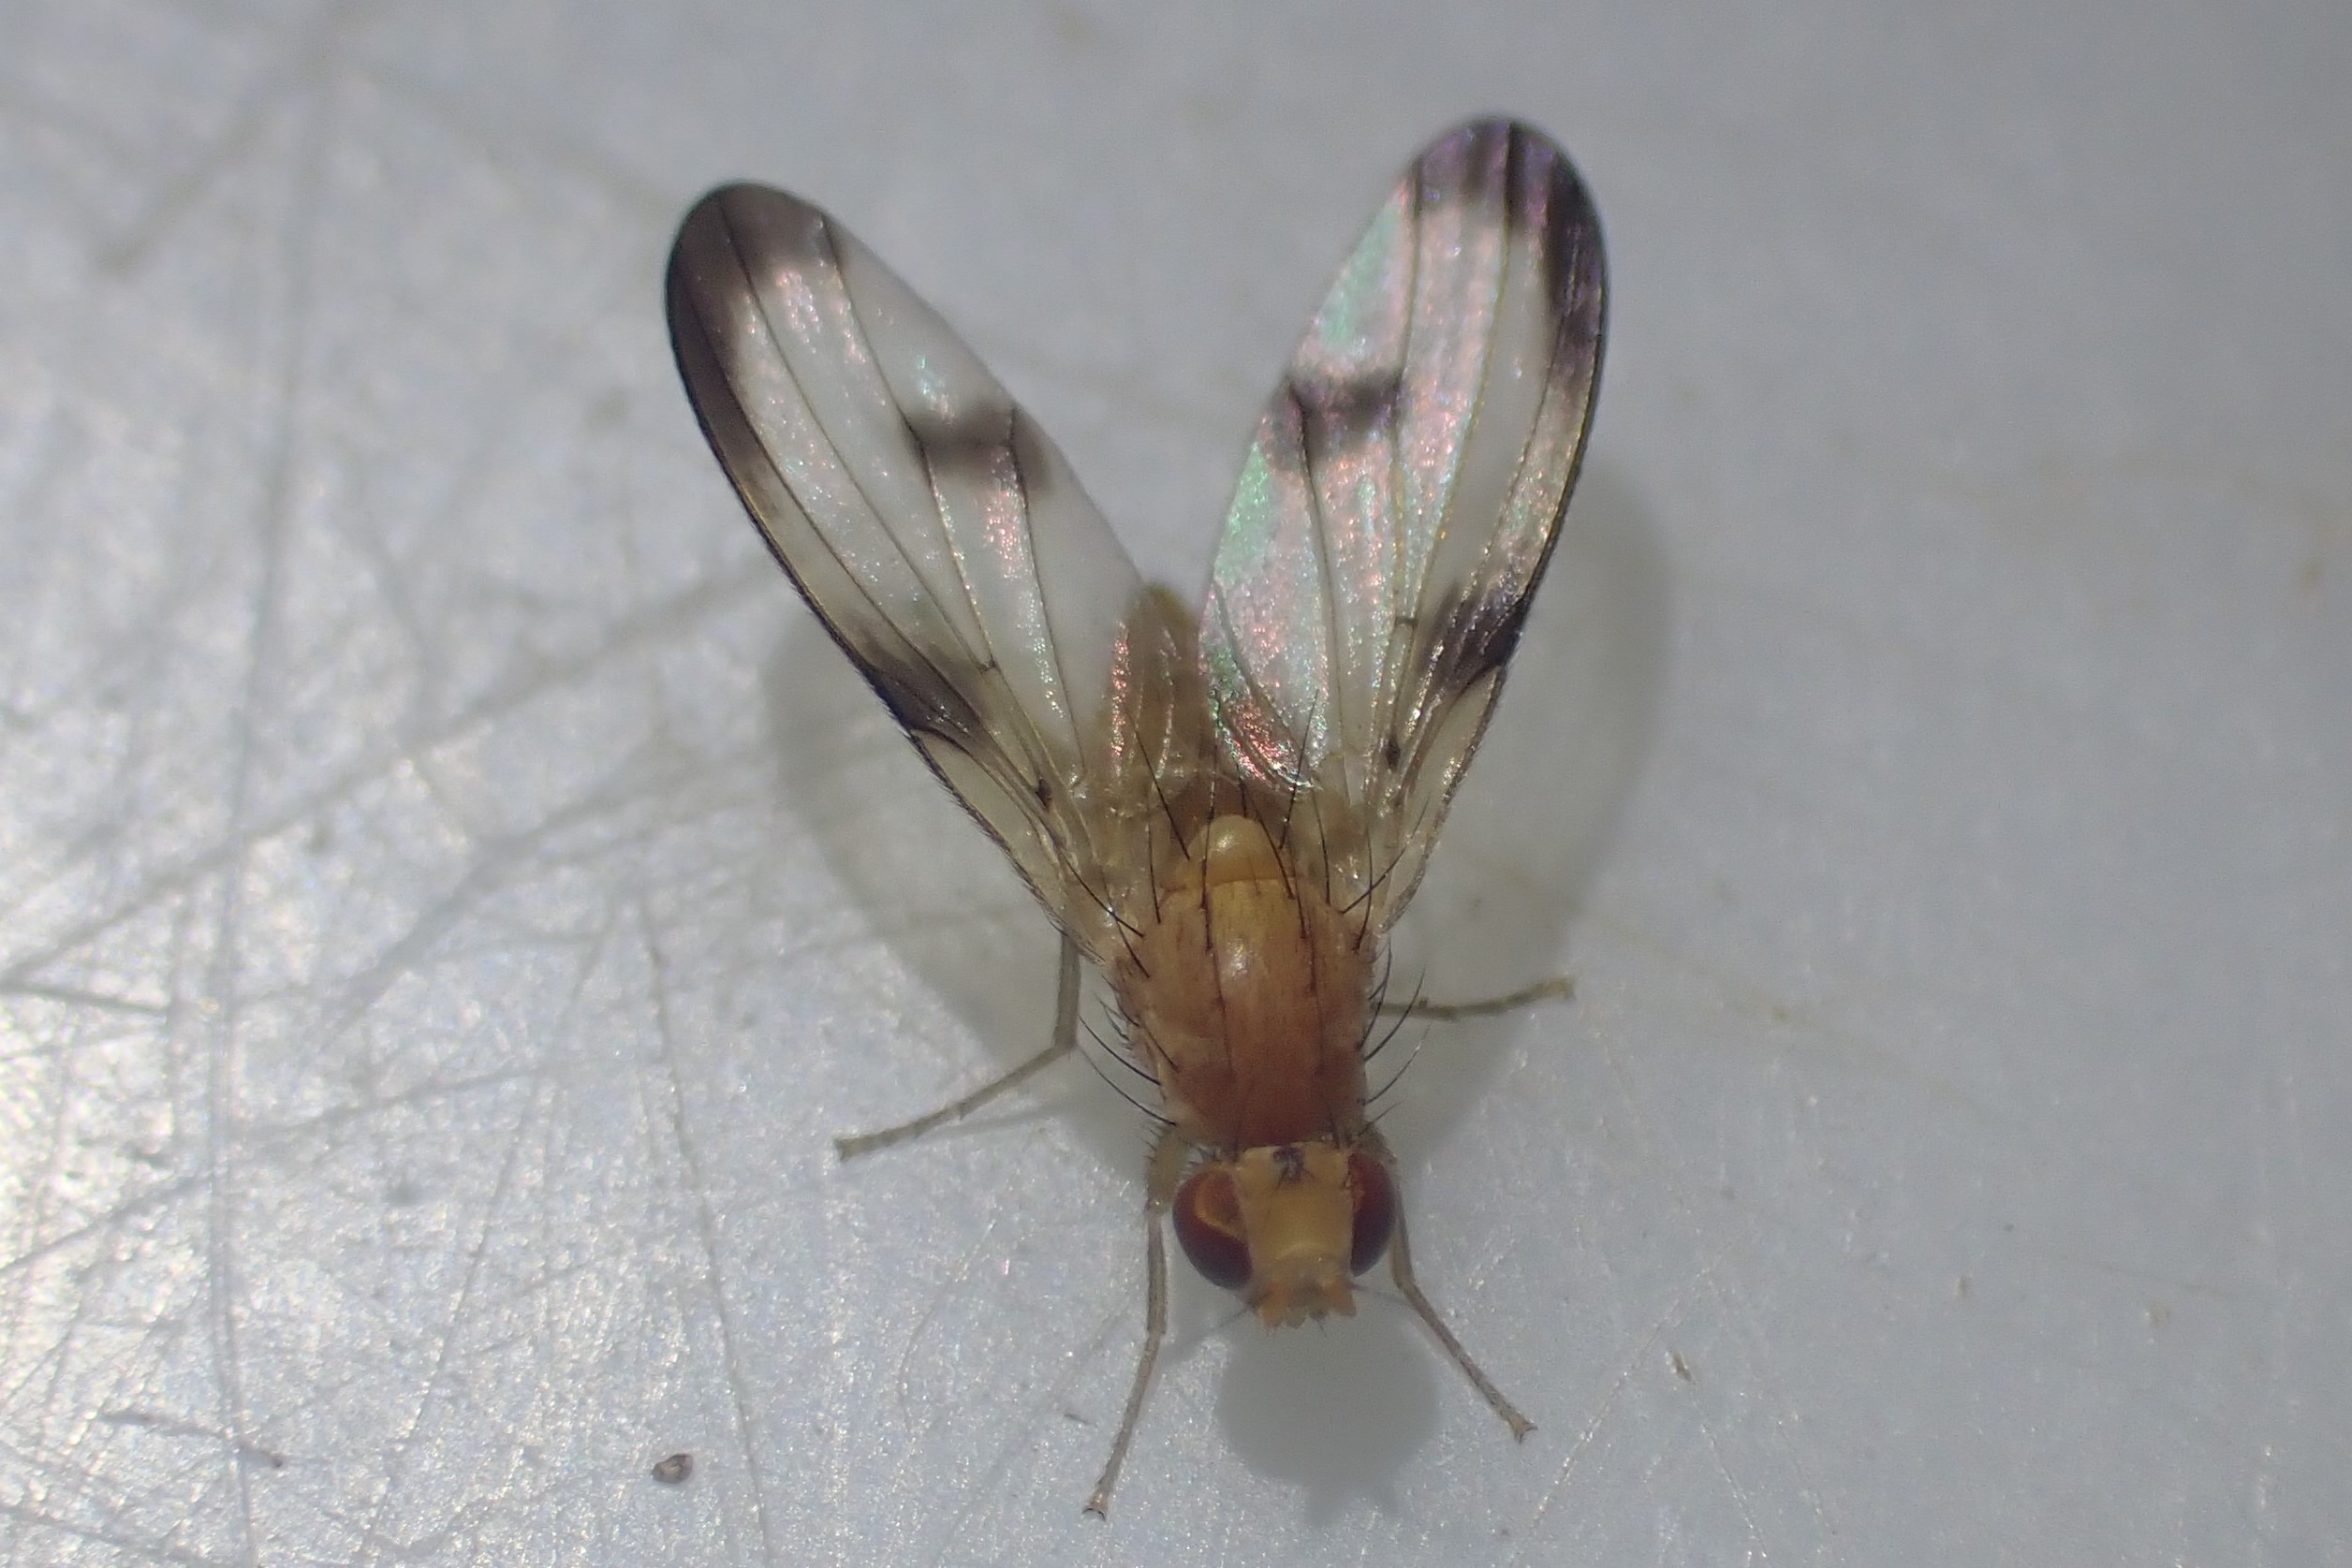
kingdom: Animalia
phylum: Arthropoda
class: Insecta
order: Diptera
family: Pallopteridae
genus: Palloptera
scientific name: Palloptera trimacula
